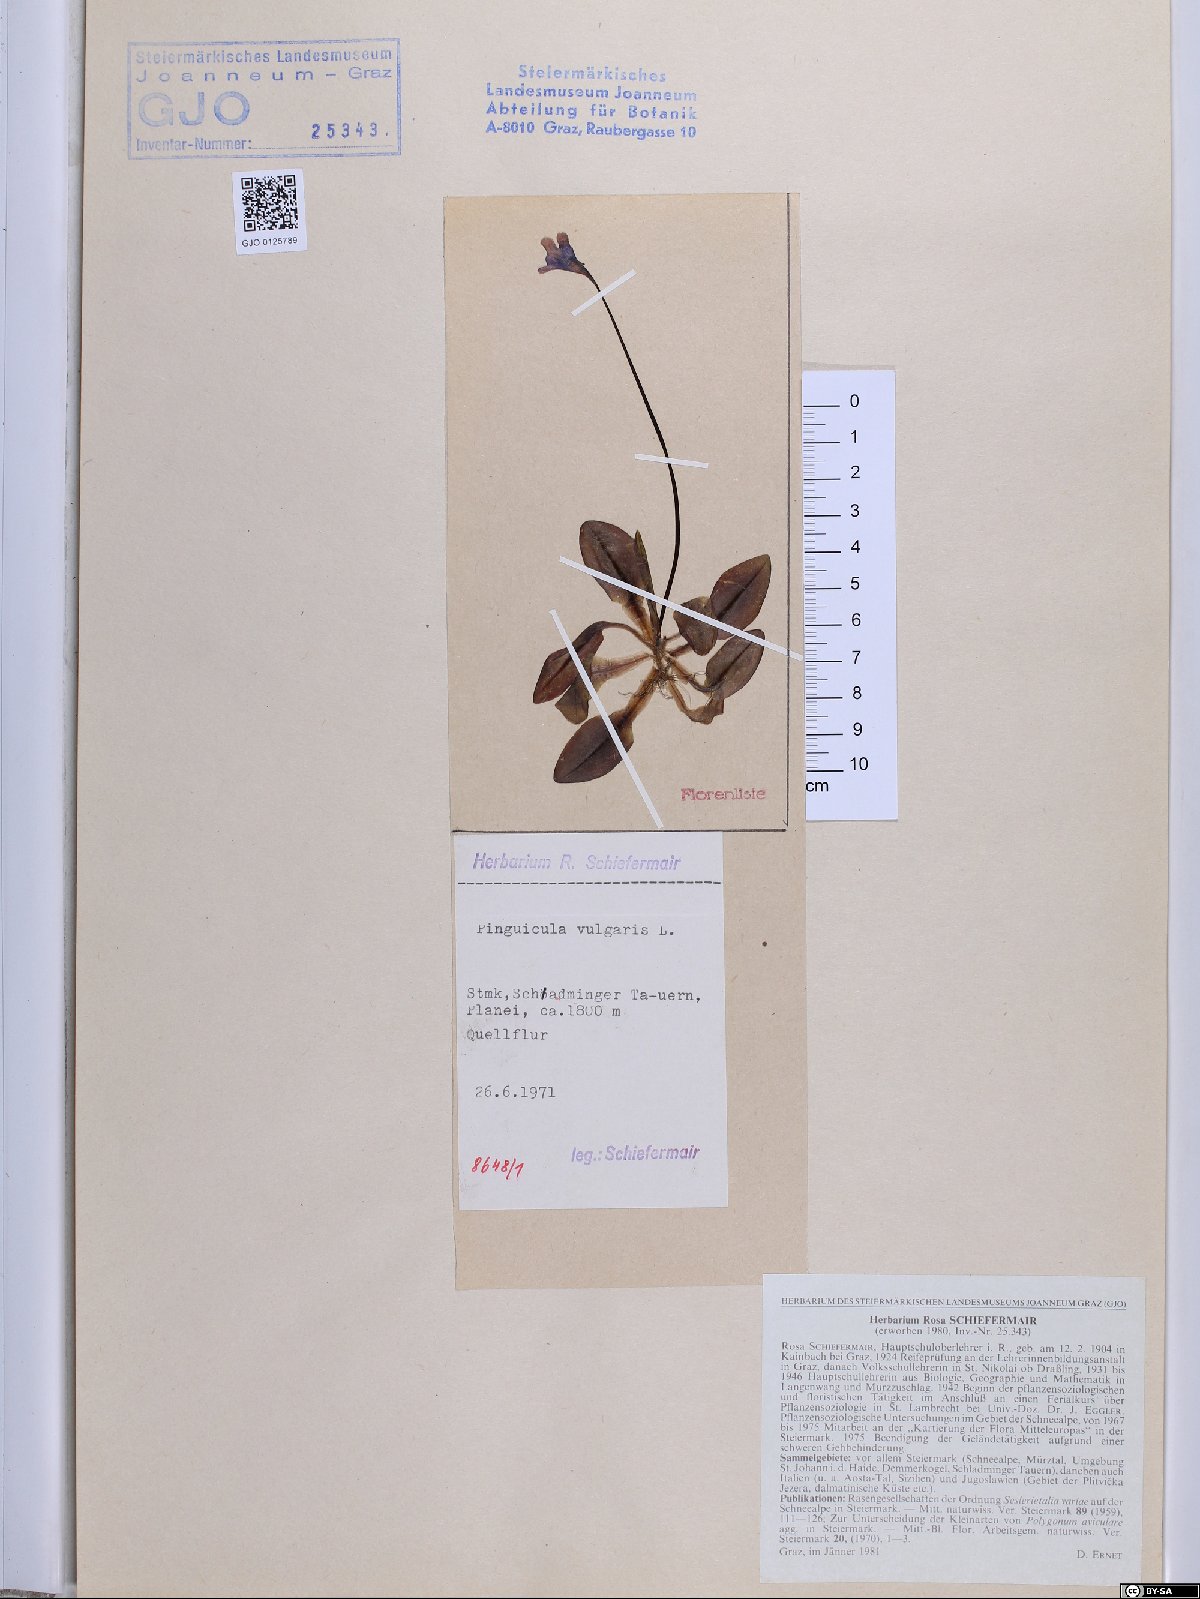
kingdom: Plantae
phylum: Tracheophyta
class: Magnoliopsida
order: Lamiales
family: Lentibulariaceae
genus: Pinguicula
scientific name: Pinguicula vulgaris
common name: Common butterwort
